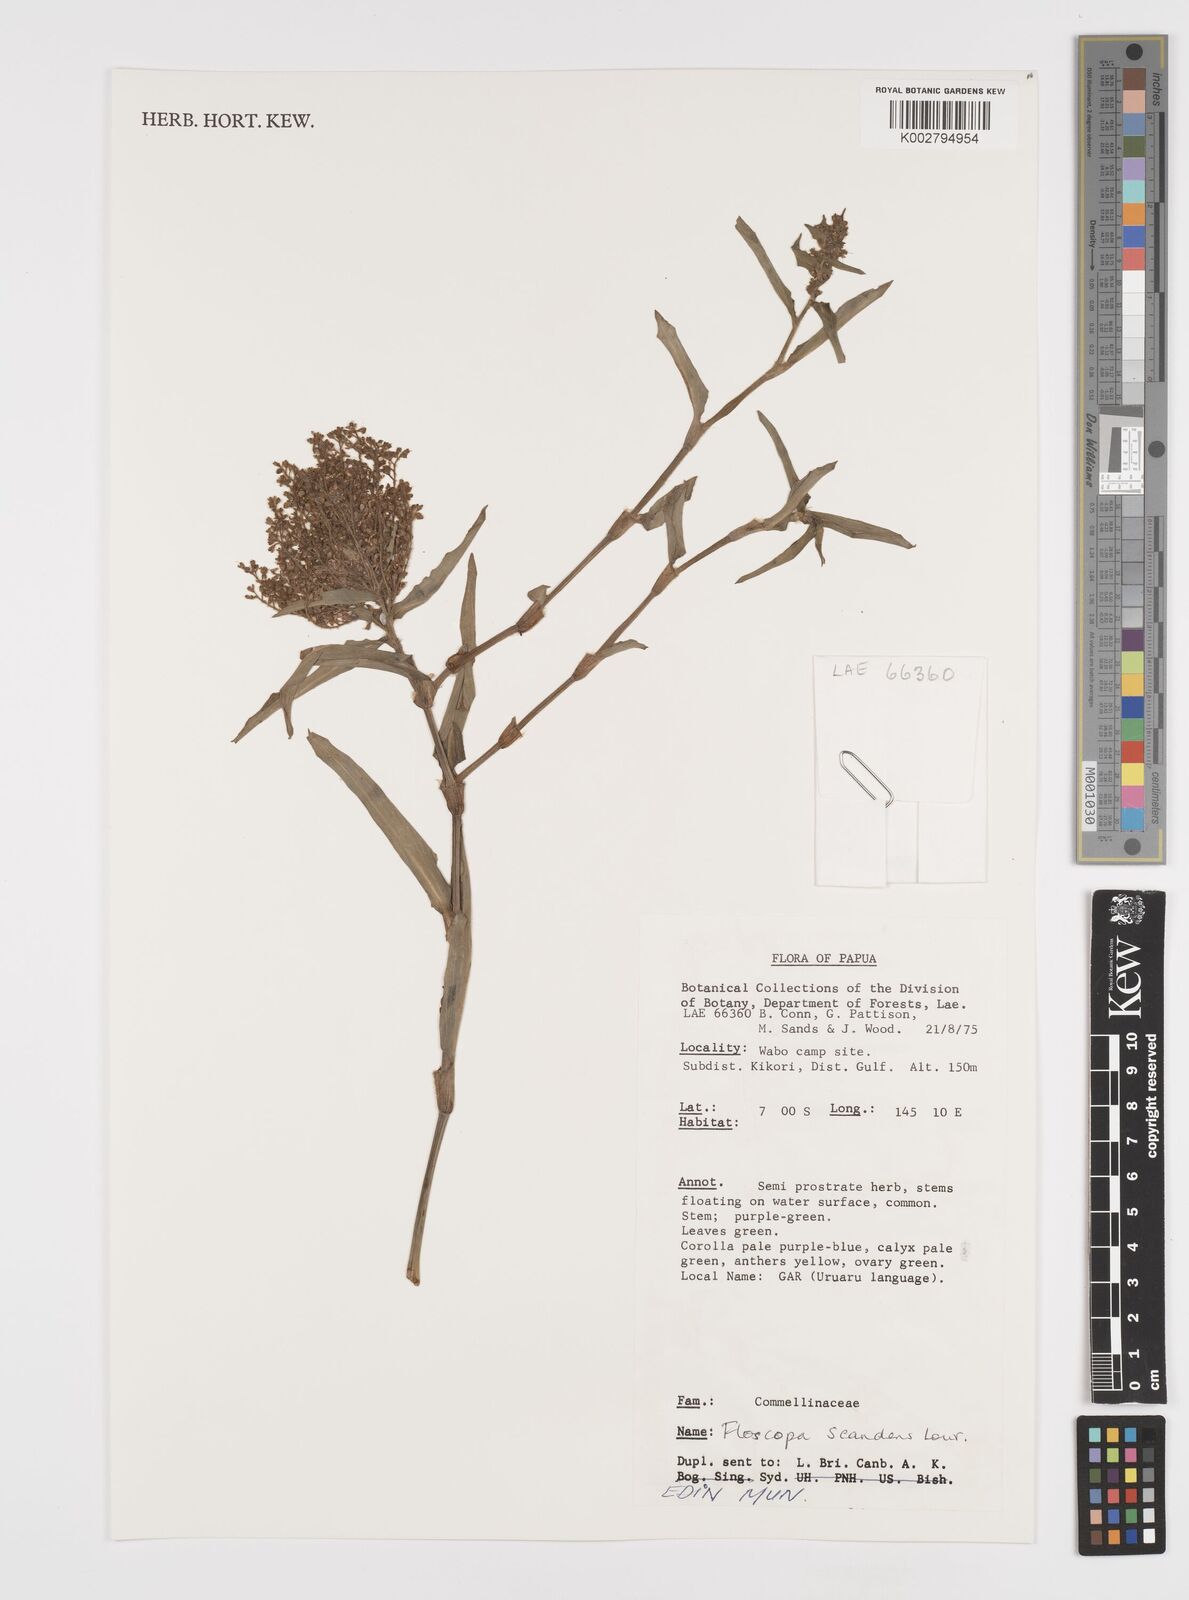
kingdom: Plantae
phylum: Tracheophyta
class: Liliopsida
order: Commelinales
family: Commelinaceae
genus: Floscopa
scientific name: Floscopa scandens
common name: Climbing flower cup
